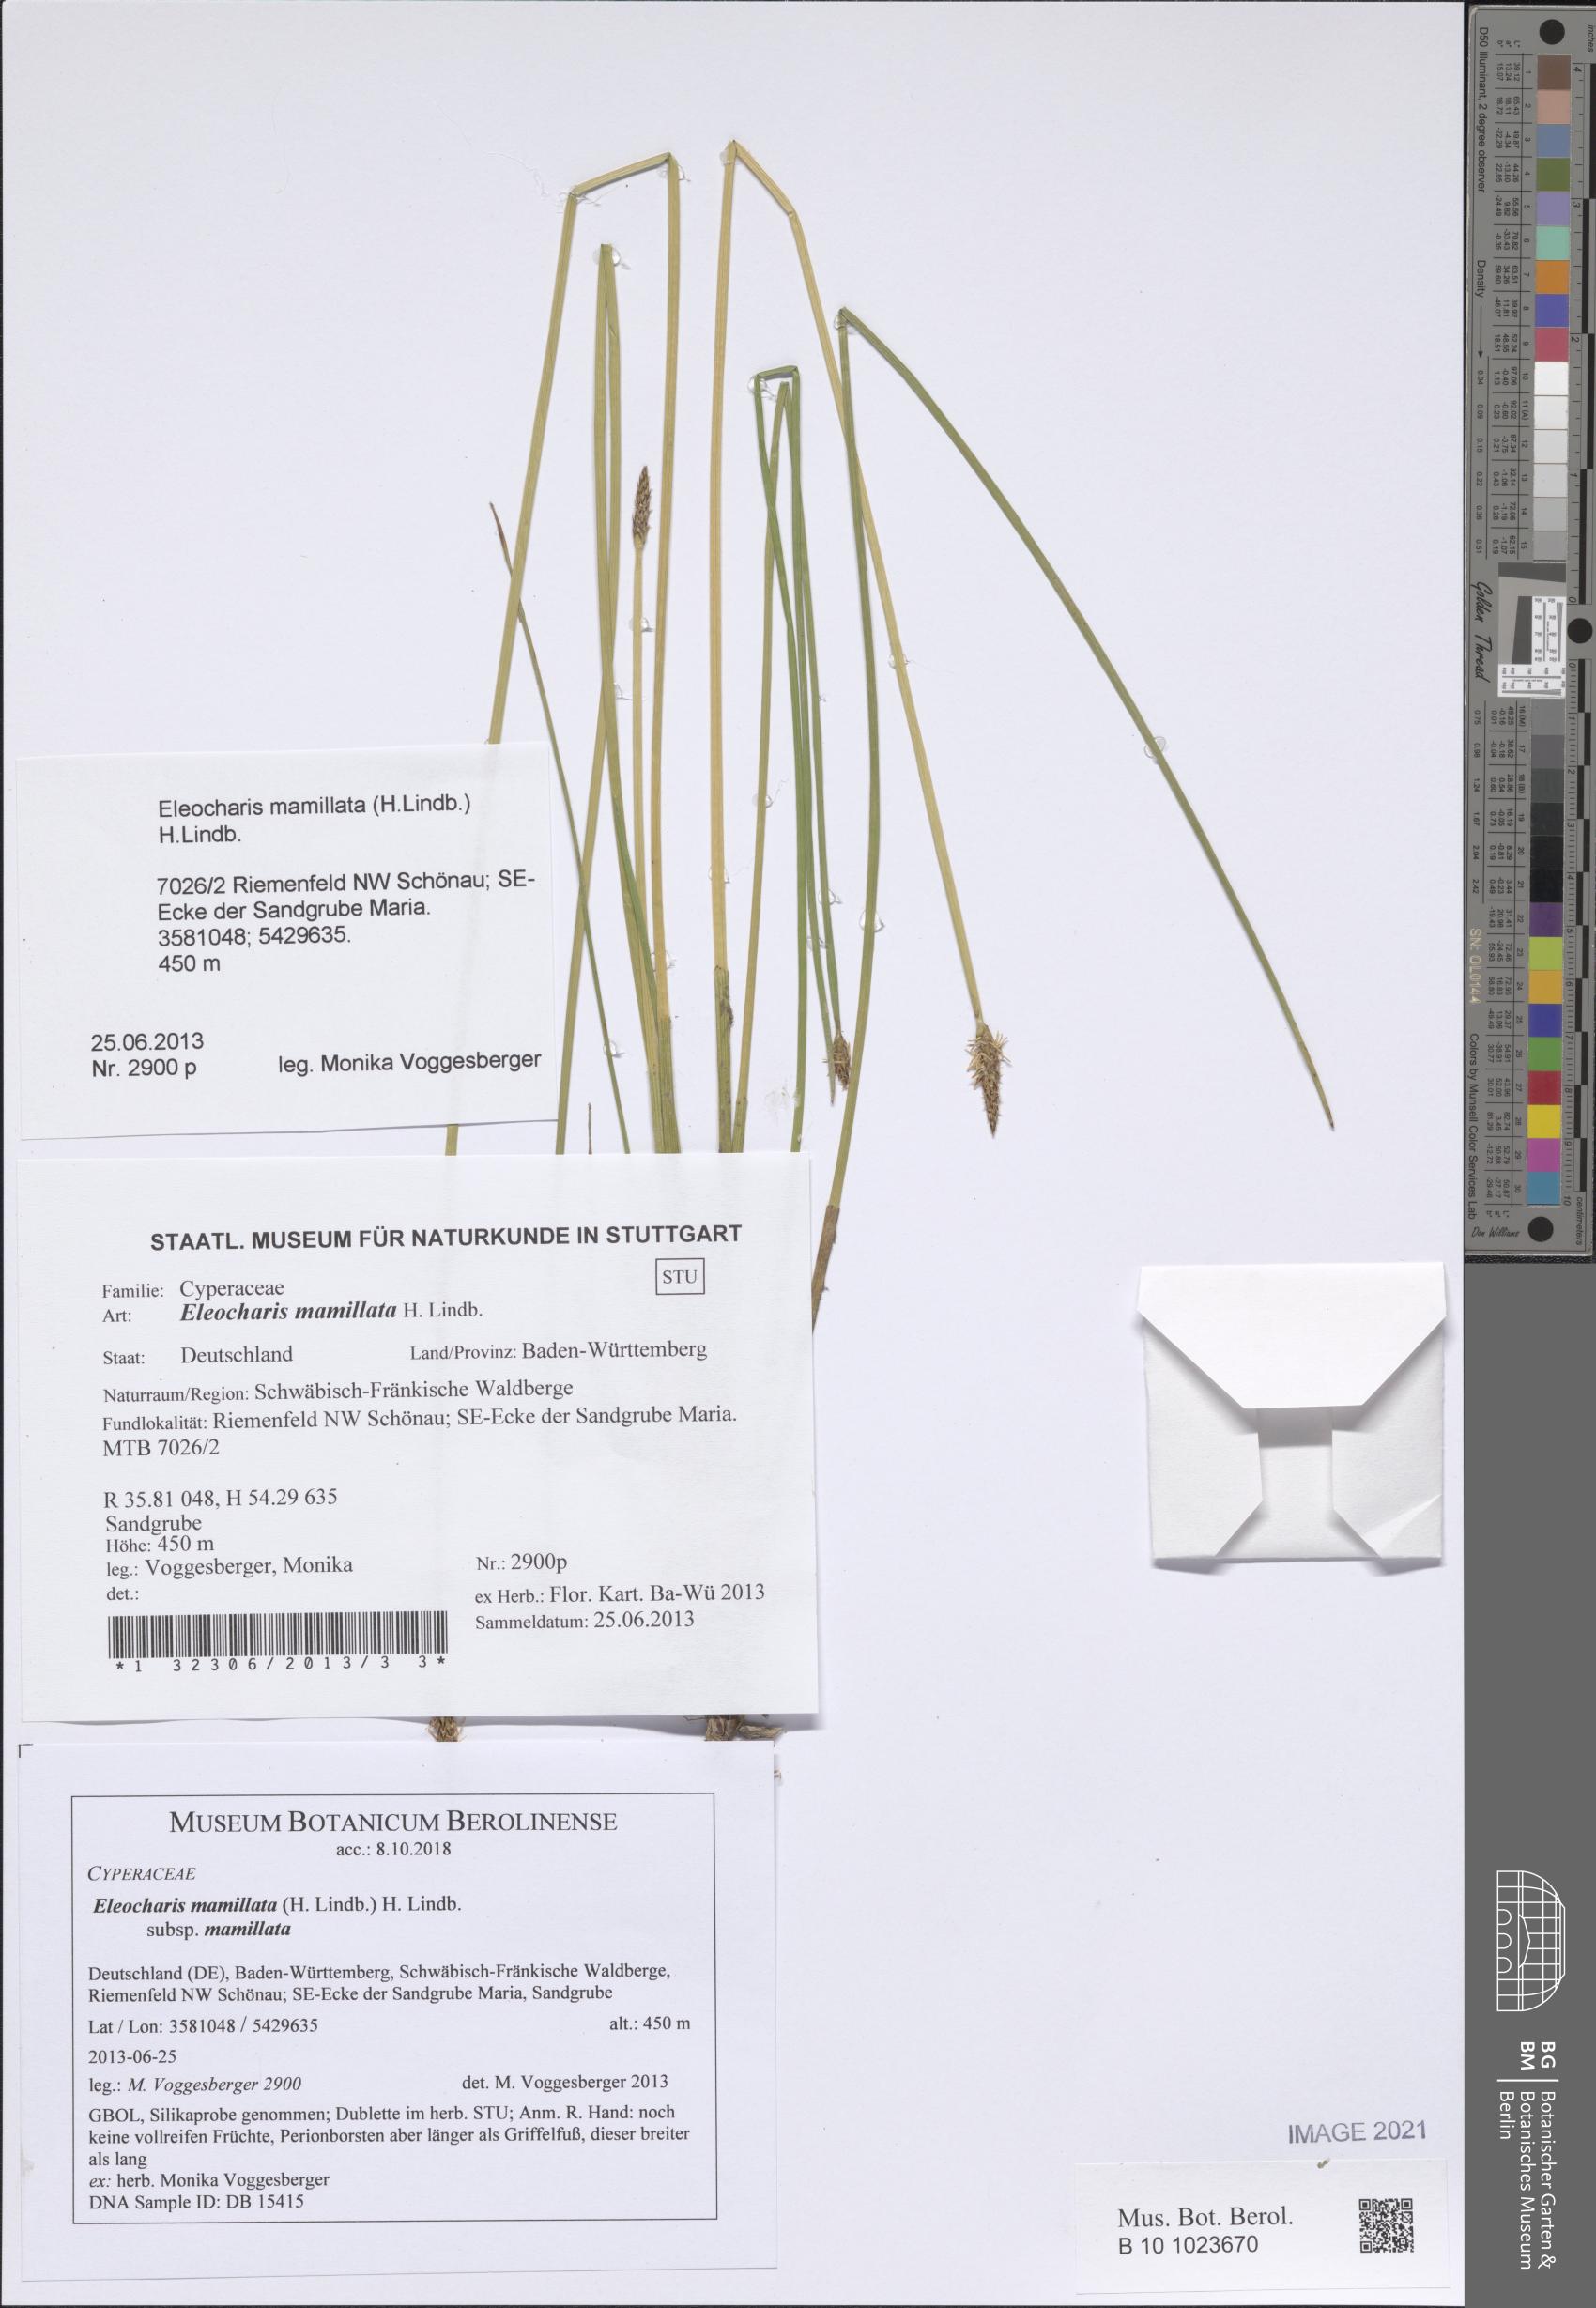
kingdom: Plantae
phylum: Tracheophyta
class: Liliopsida
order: Poales
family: Cyperaceae
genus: Eleocharis
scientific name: Eleocharis mamillata
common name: Northern spike-rush
